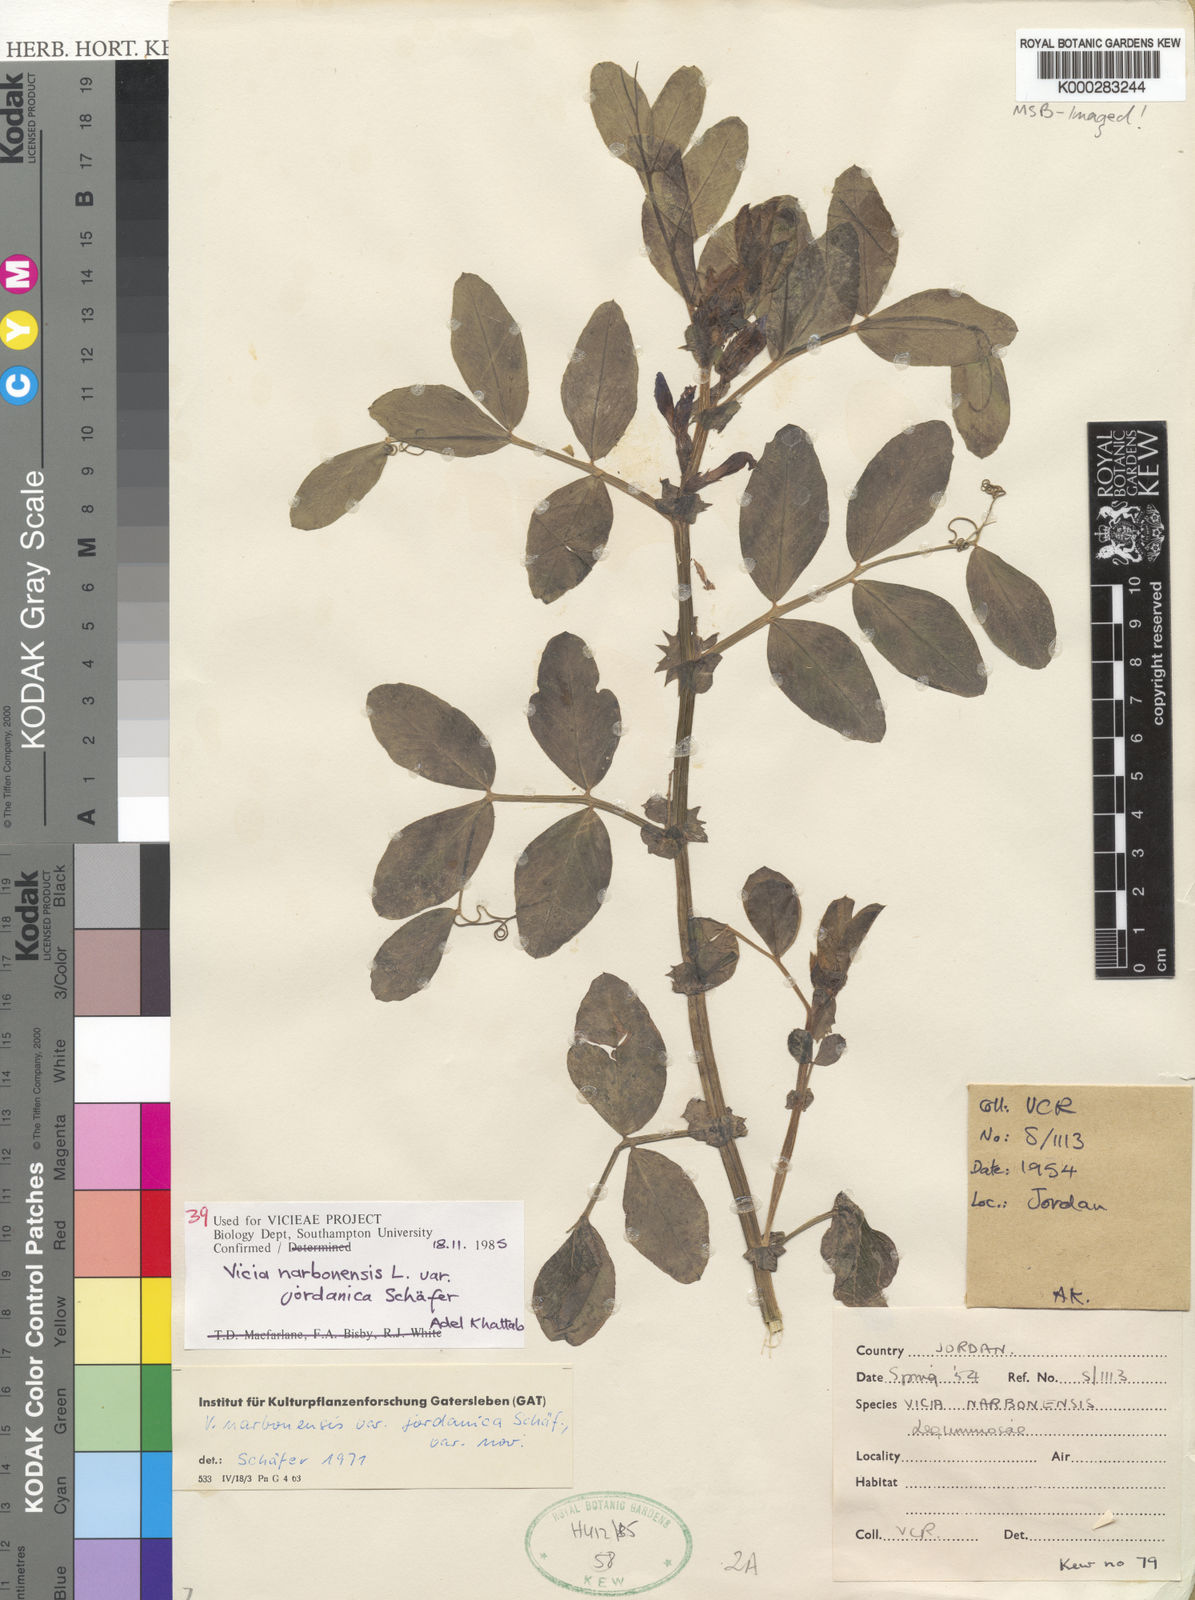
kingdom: Plantae
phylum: Tracheophyta
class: Magnoliopsida
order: Fabales
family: Fabaceae
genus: Vicia
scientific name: Vicia narbonensis
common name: Narbonne vetch
